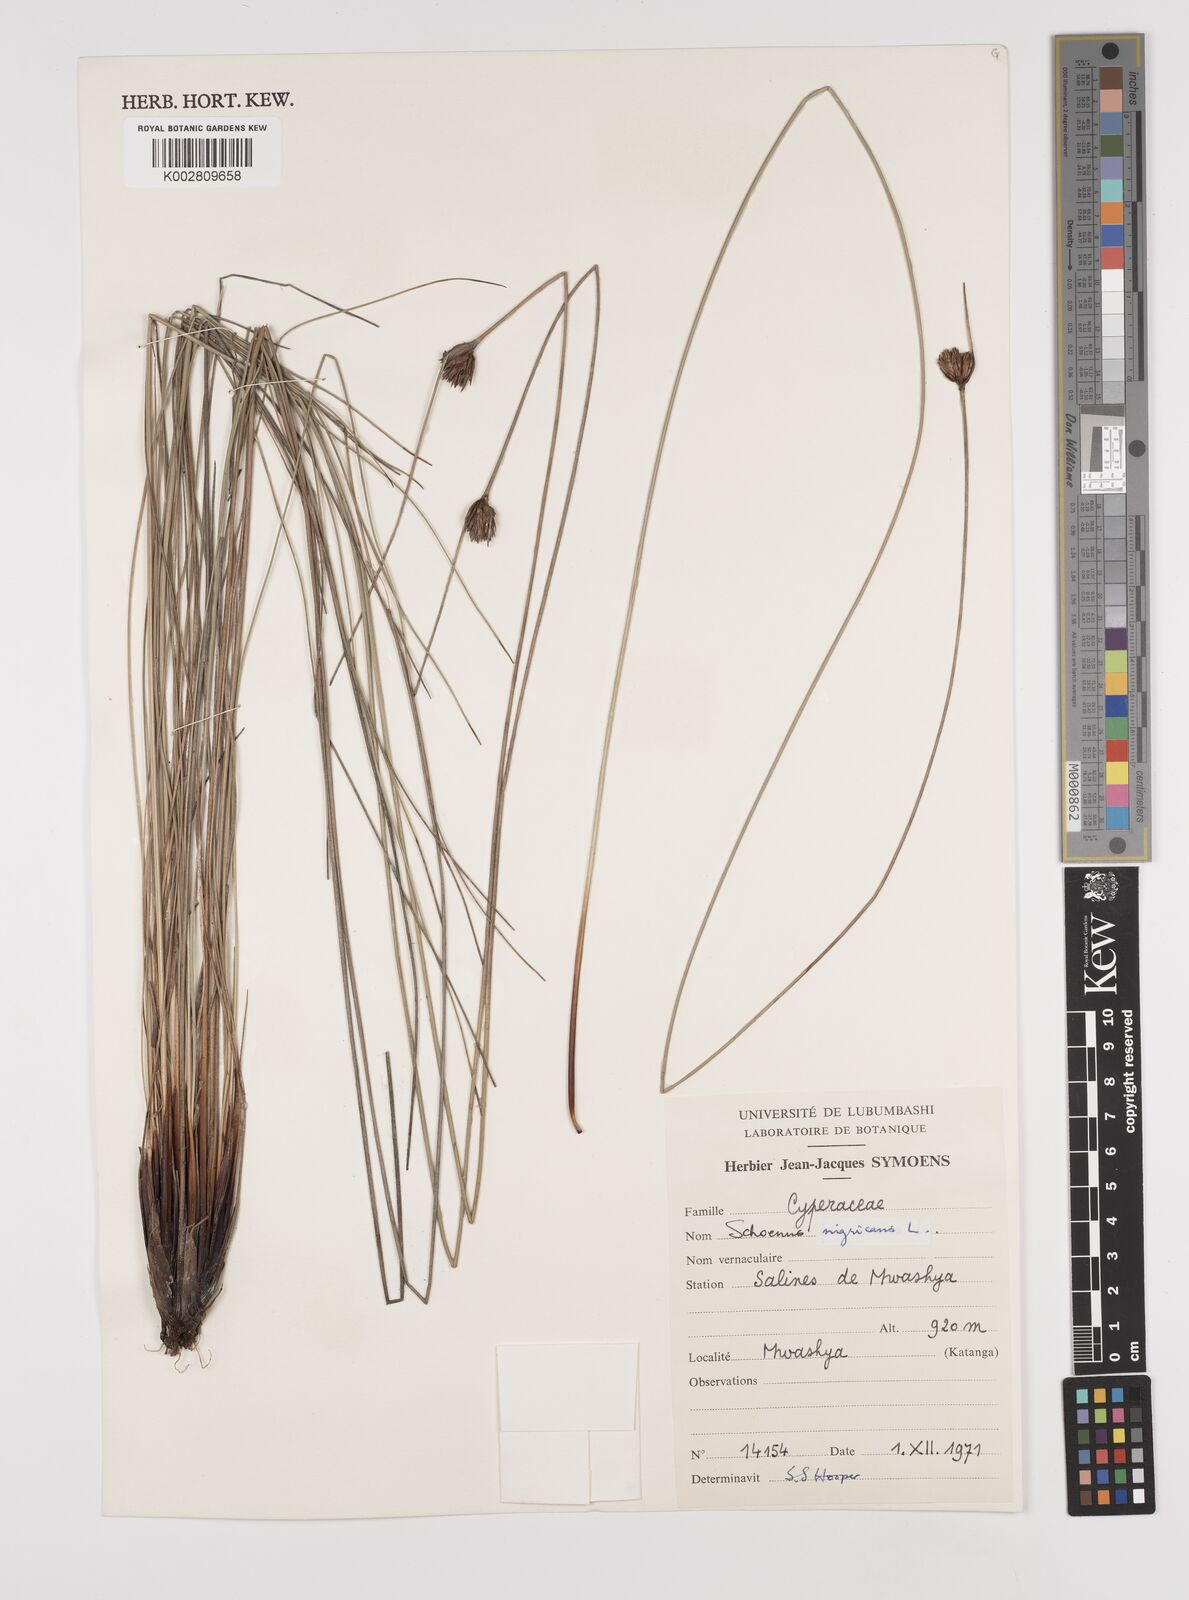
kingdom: Plantae
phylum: Tracheophyta
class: Liliopsida
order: Poales
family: Cyperaceae
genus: Schoenus
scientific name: Schoenus nigricans
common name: Black bog-rush
